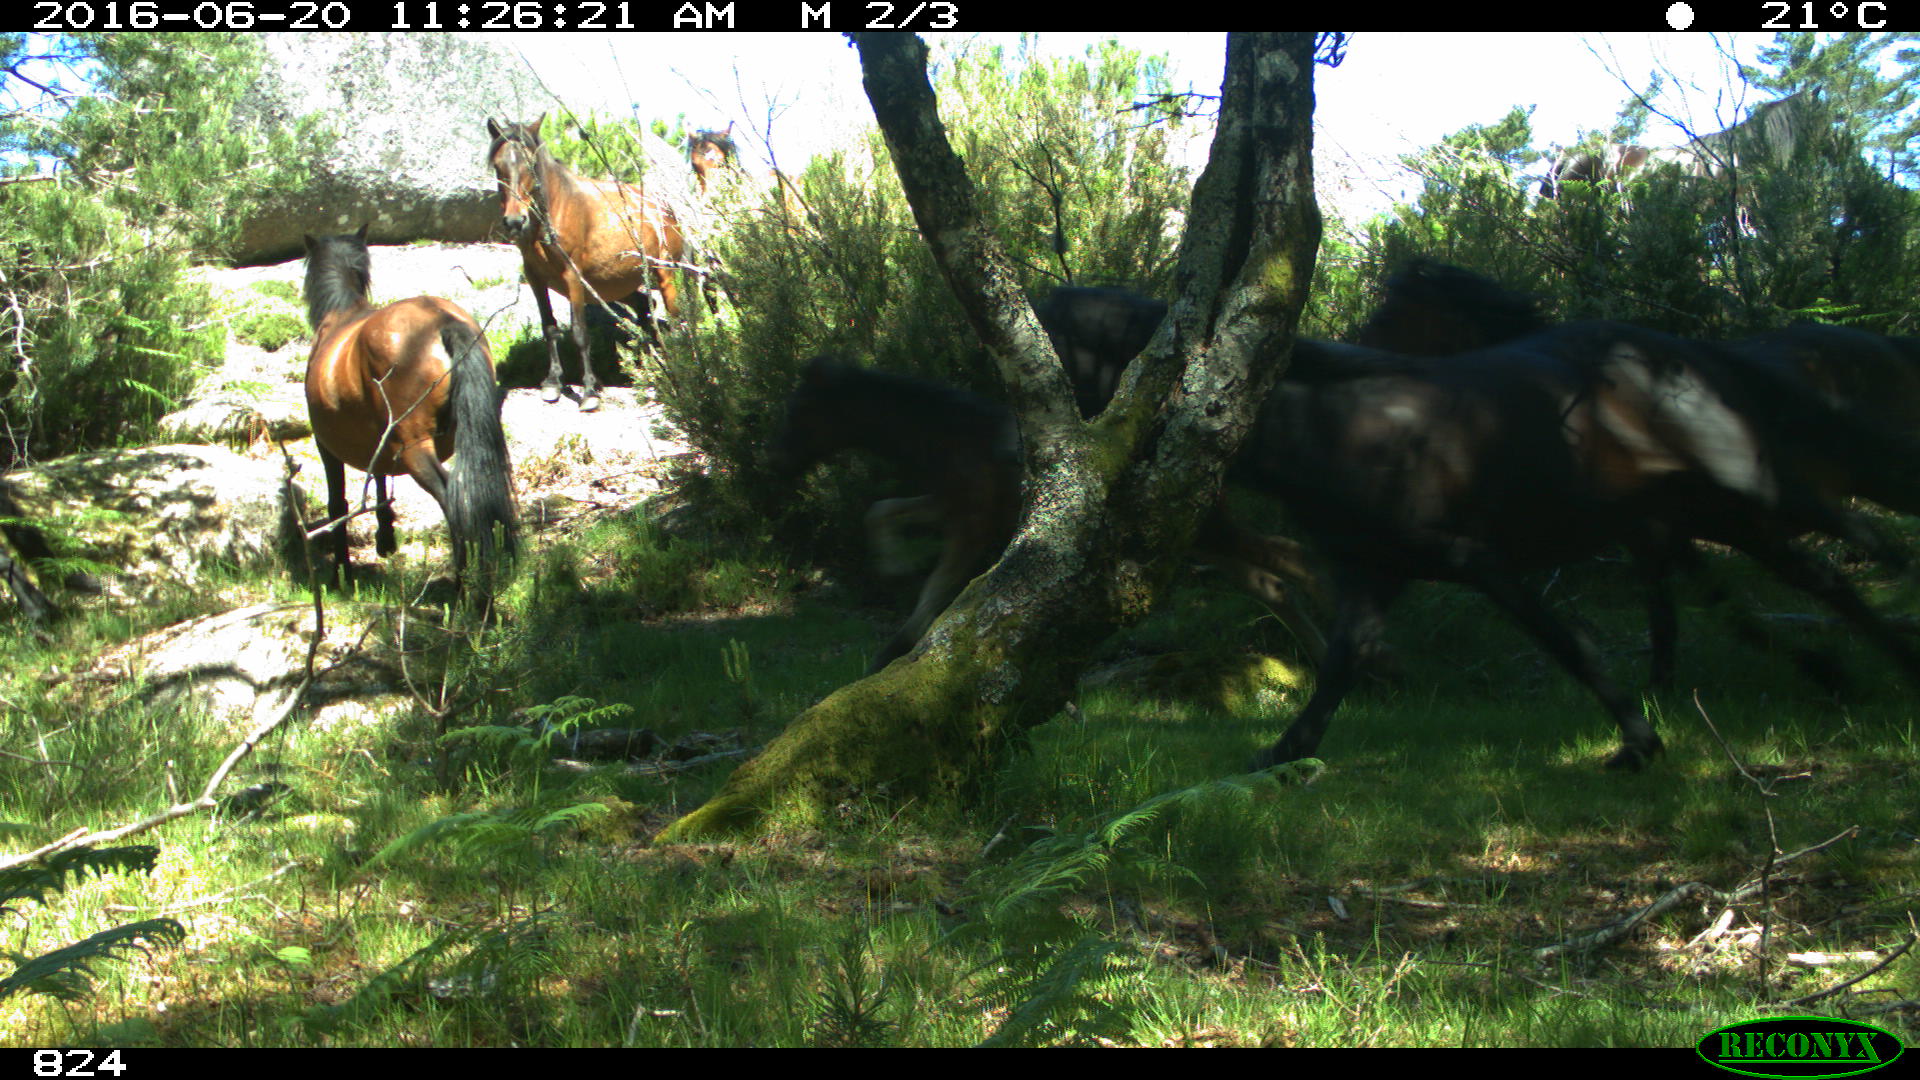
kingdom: Animalia
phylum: Chordata
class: Mammalia
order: Perissodactyla
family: Equidae
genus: Equus
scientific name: Equus caballus
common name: Horse
